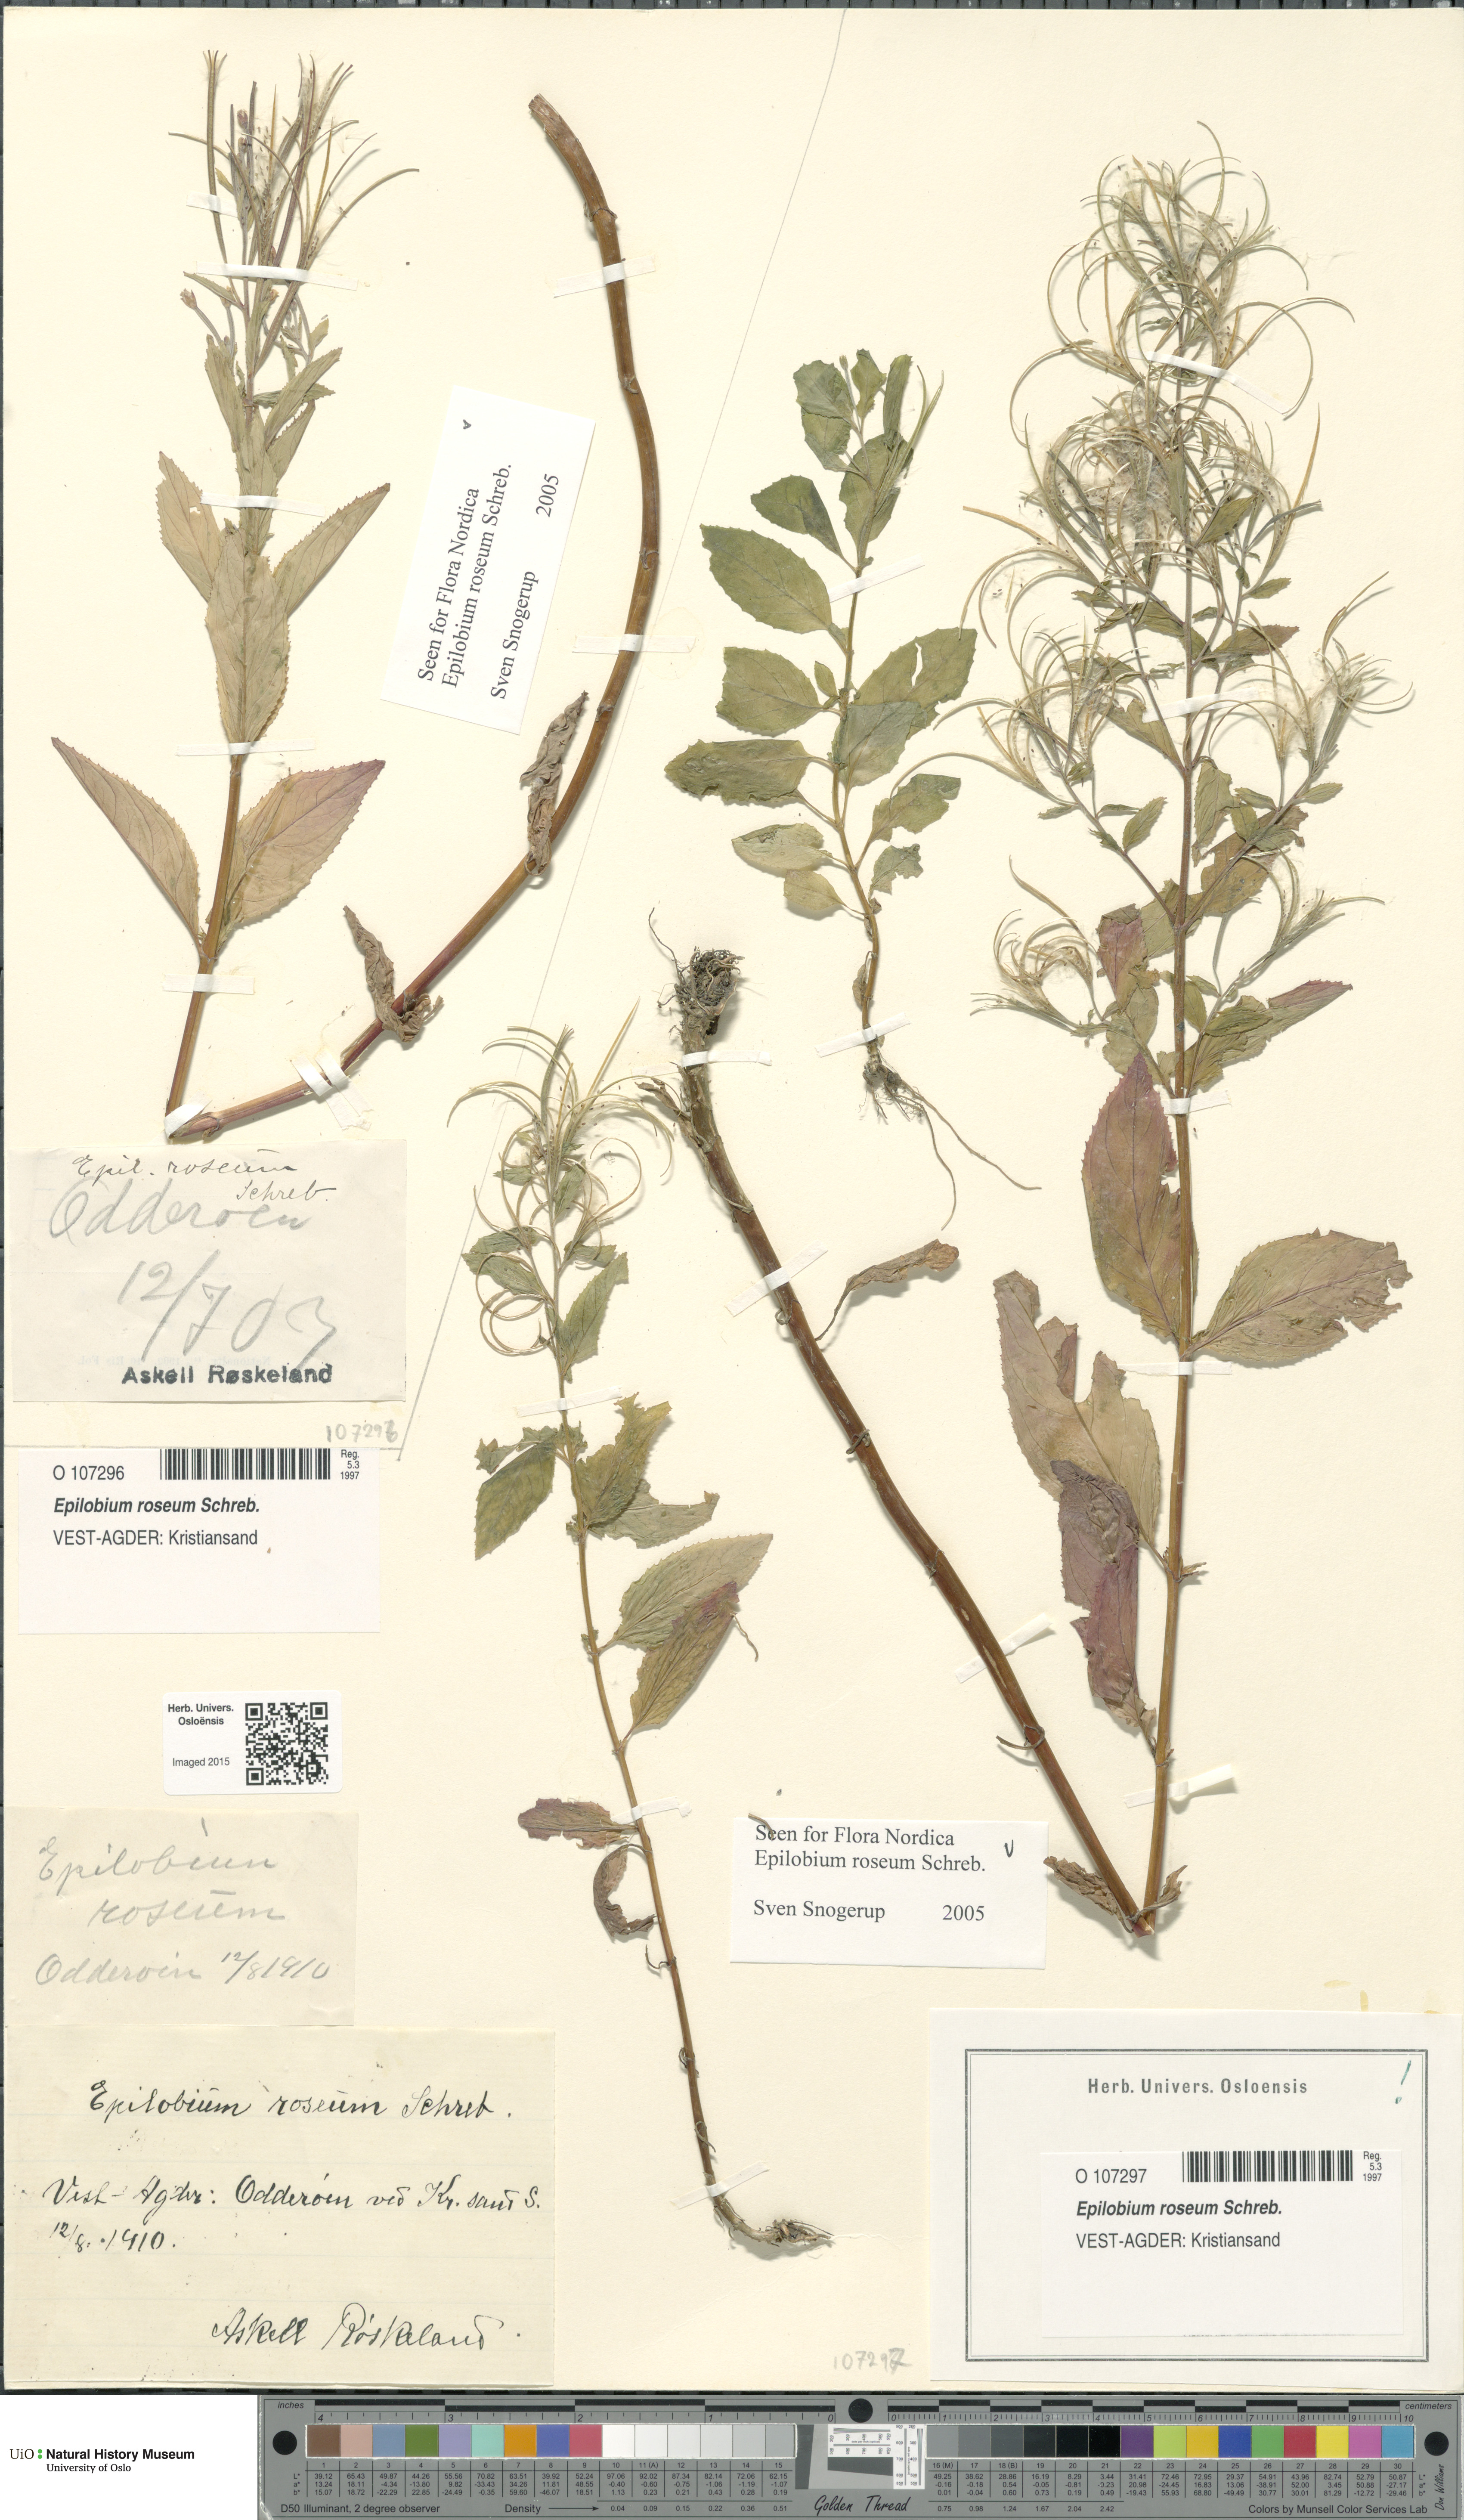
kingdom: Plantae
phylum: Tracheophyta
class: Magnoliopsida
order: Myrtales
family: Onagraceae
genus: Epilobium
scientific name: Epilobium roseum
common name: Pale willowherb
